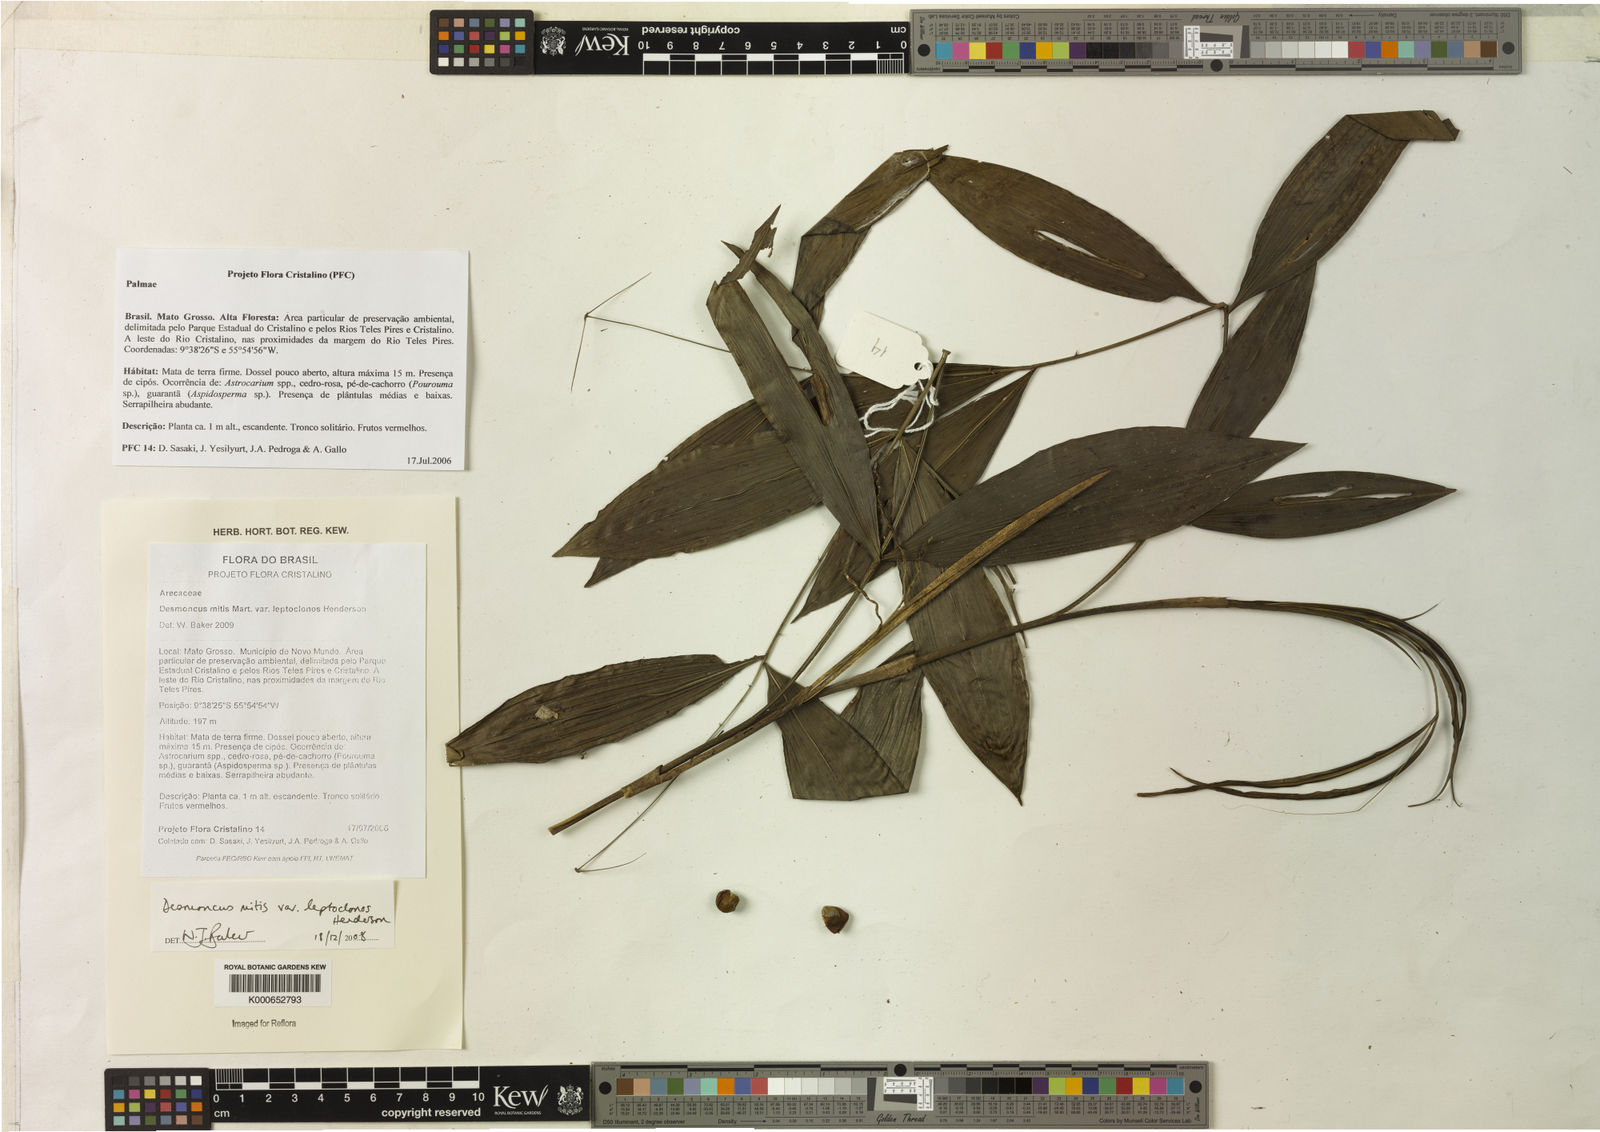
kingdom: Plantae
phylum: Tracheophyta
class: Liliopsida
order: Arecales
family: Arecaceae
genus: Desmoncus
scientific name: Desmoncus mitis
